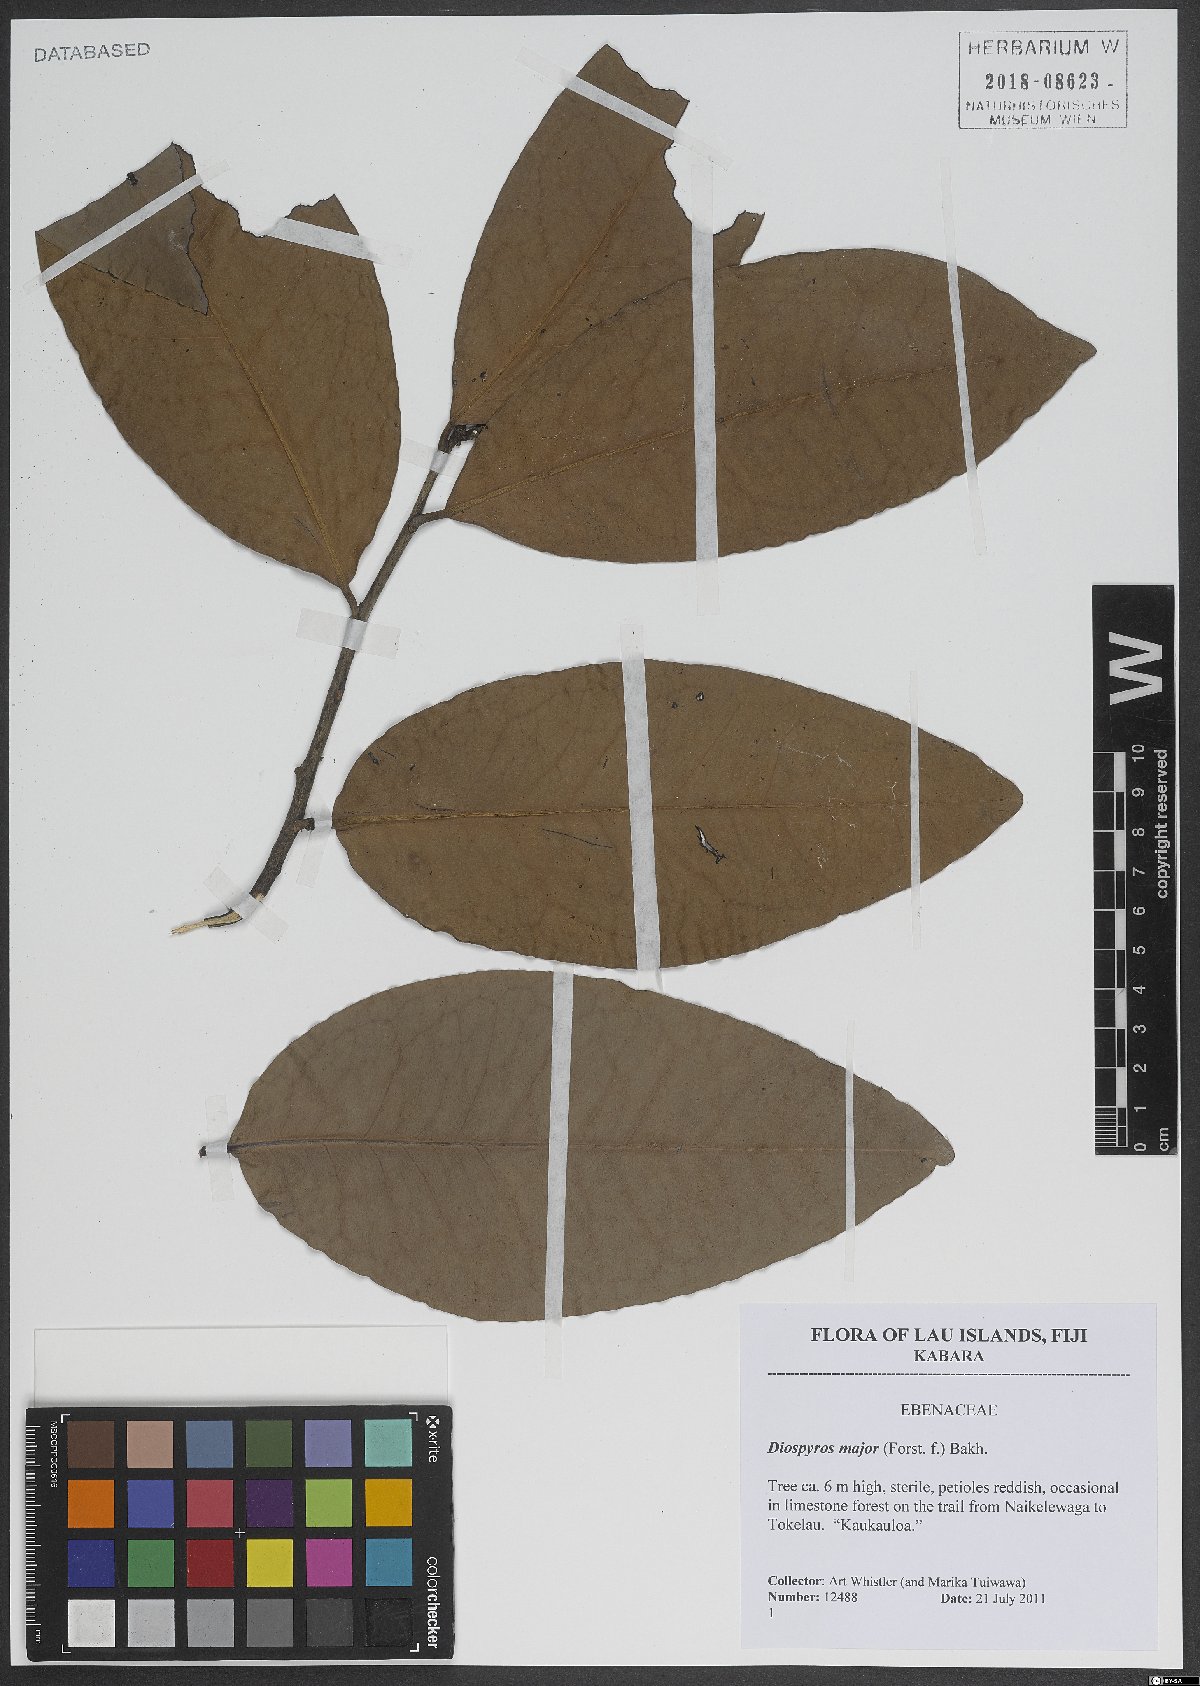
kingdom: Plantae
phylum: Tracheophyta
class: Magnoliopsida
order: Ericales
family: Ebenaceae
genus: Diospyros
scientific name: Diospyros major
